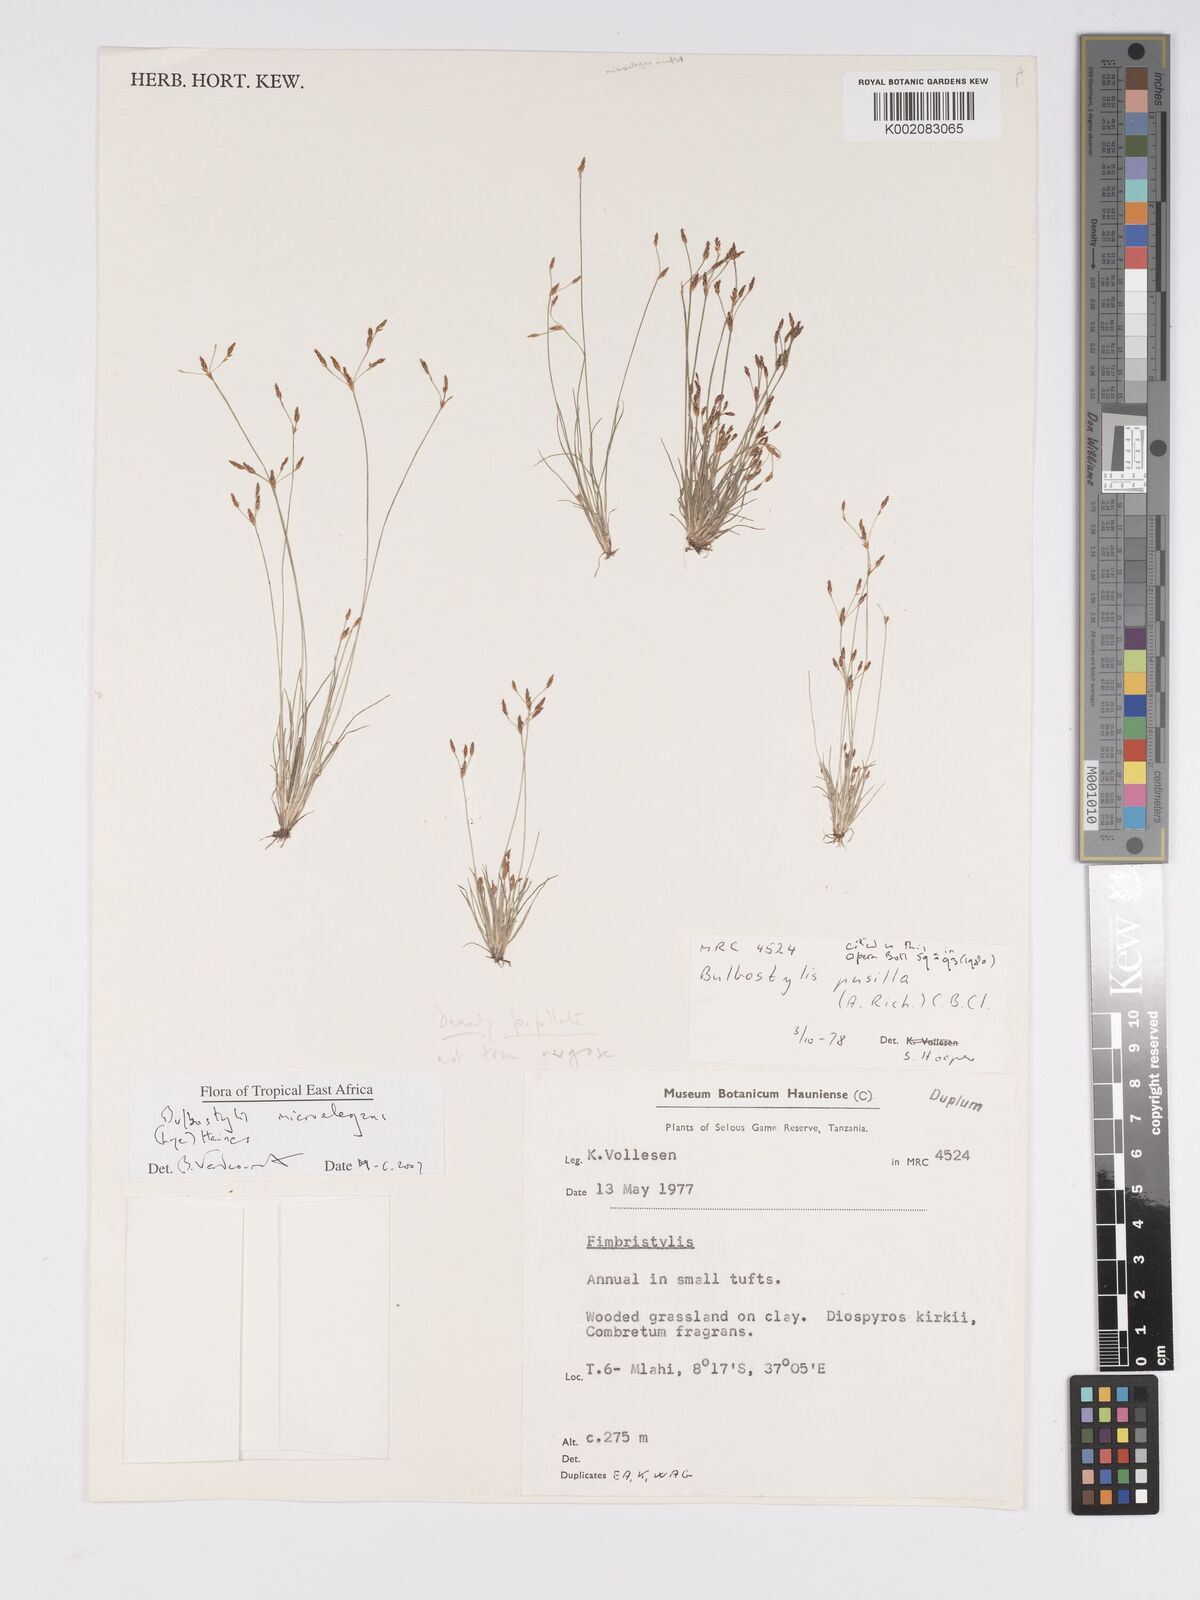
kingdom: Plantae
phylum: Tracheophyta
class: Liliopsida
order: Poales
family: Cyperaceae
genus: Bulbostylis
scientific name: Bulbostylis microelegans
